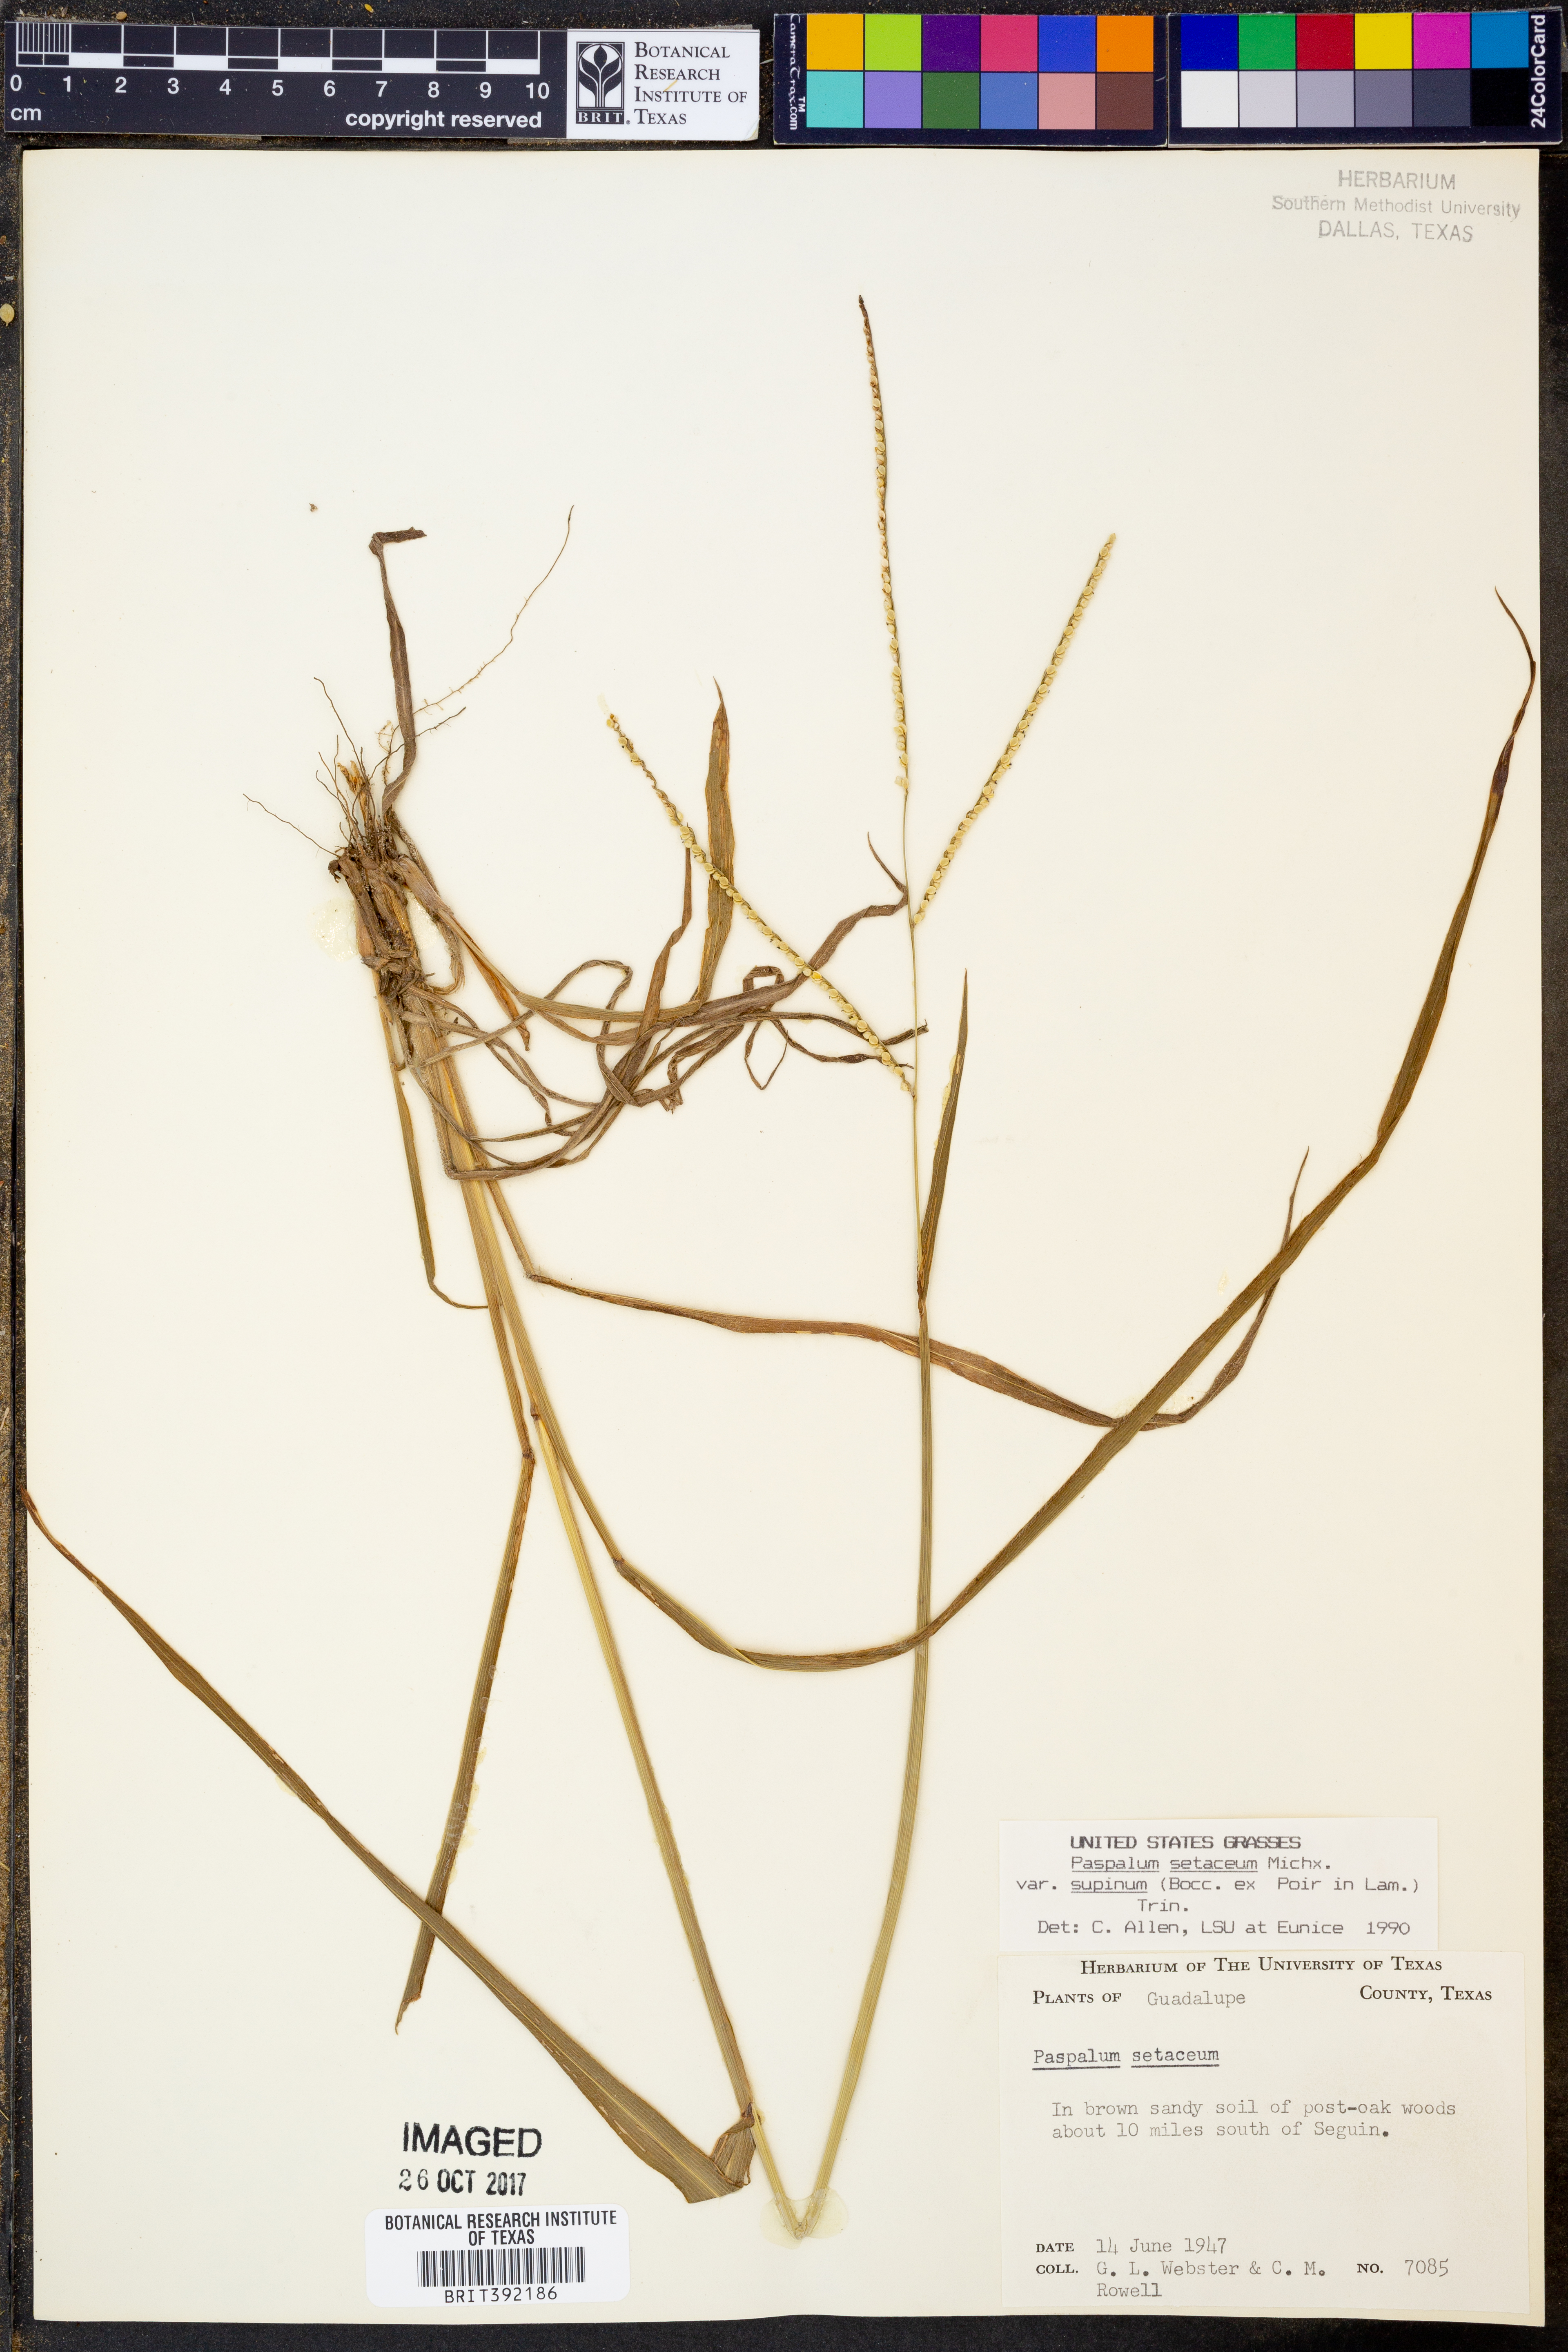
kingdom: Plantae
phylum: Tracheophyta
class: Liliopsida
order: Poales
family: Poaceae
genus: Paspalum
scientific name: Paspalum setaceum
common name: Slender paspalum
